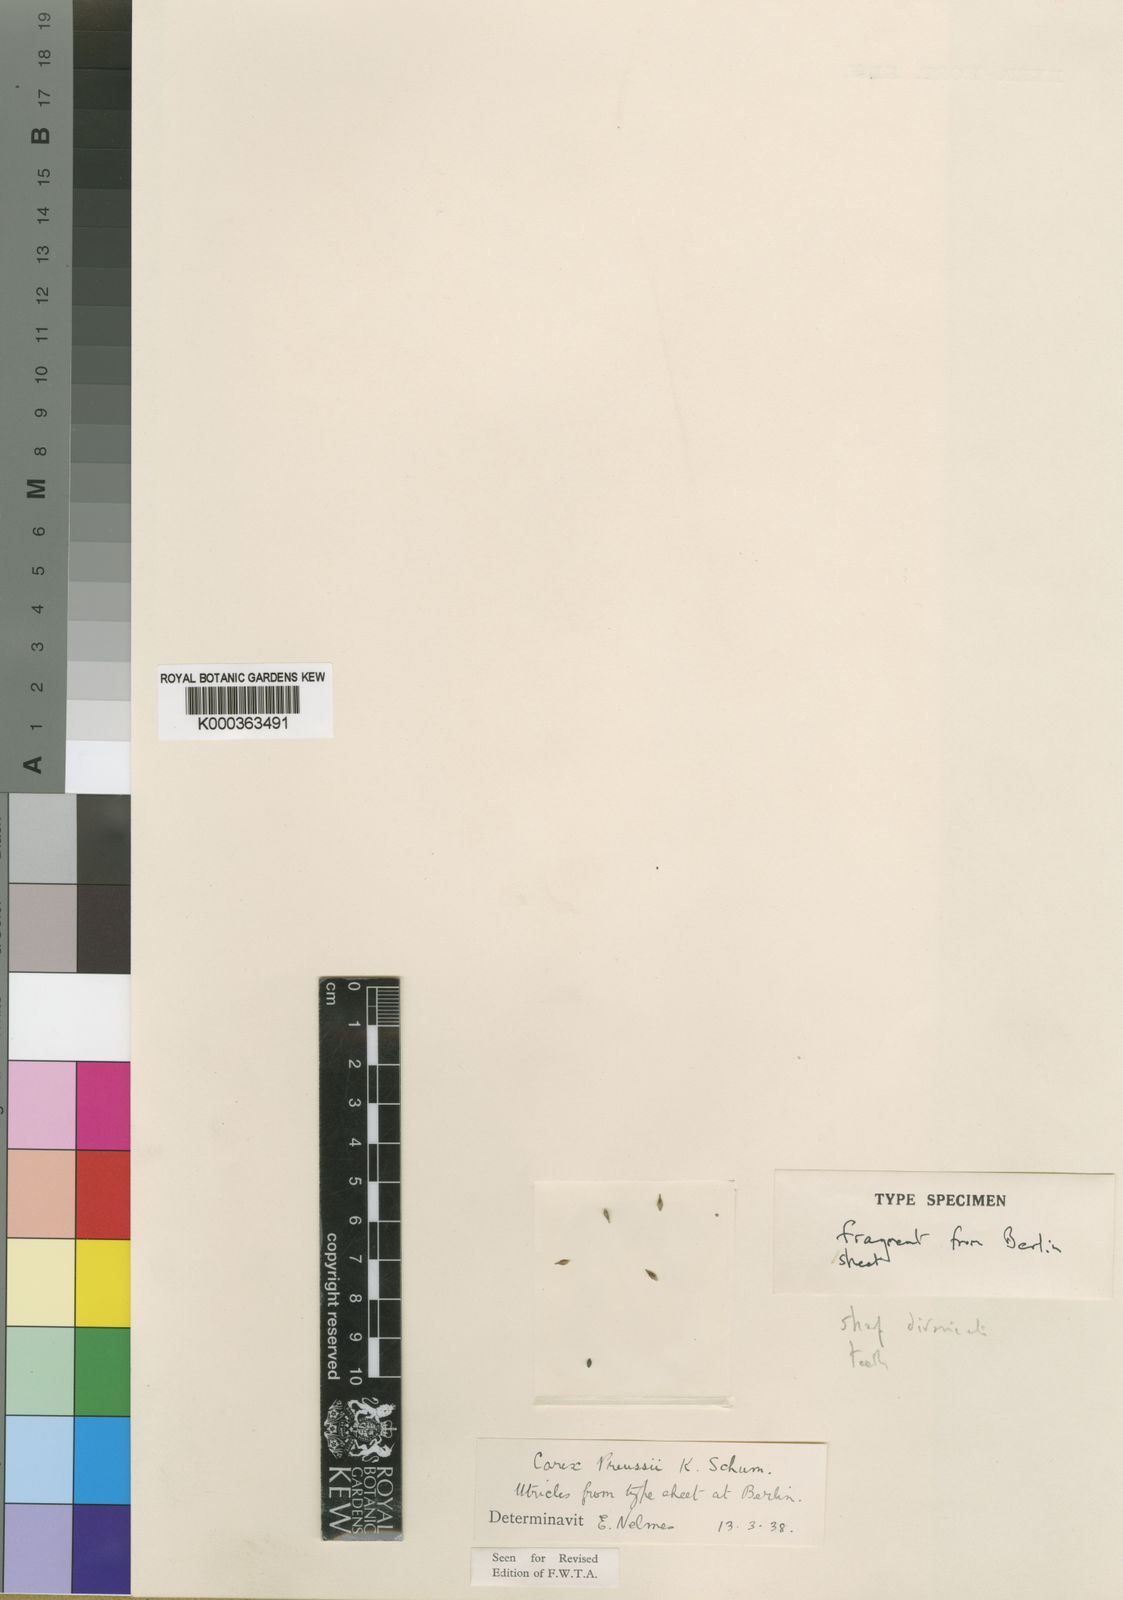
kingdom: Plantae
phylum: Tracheophyta
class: Liliopsida
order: Poales
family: Cyperaceae
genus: Carex
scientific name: Carex petitiana
